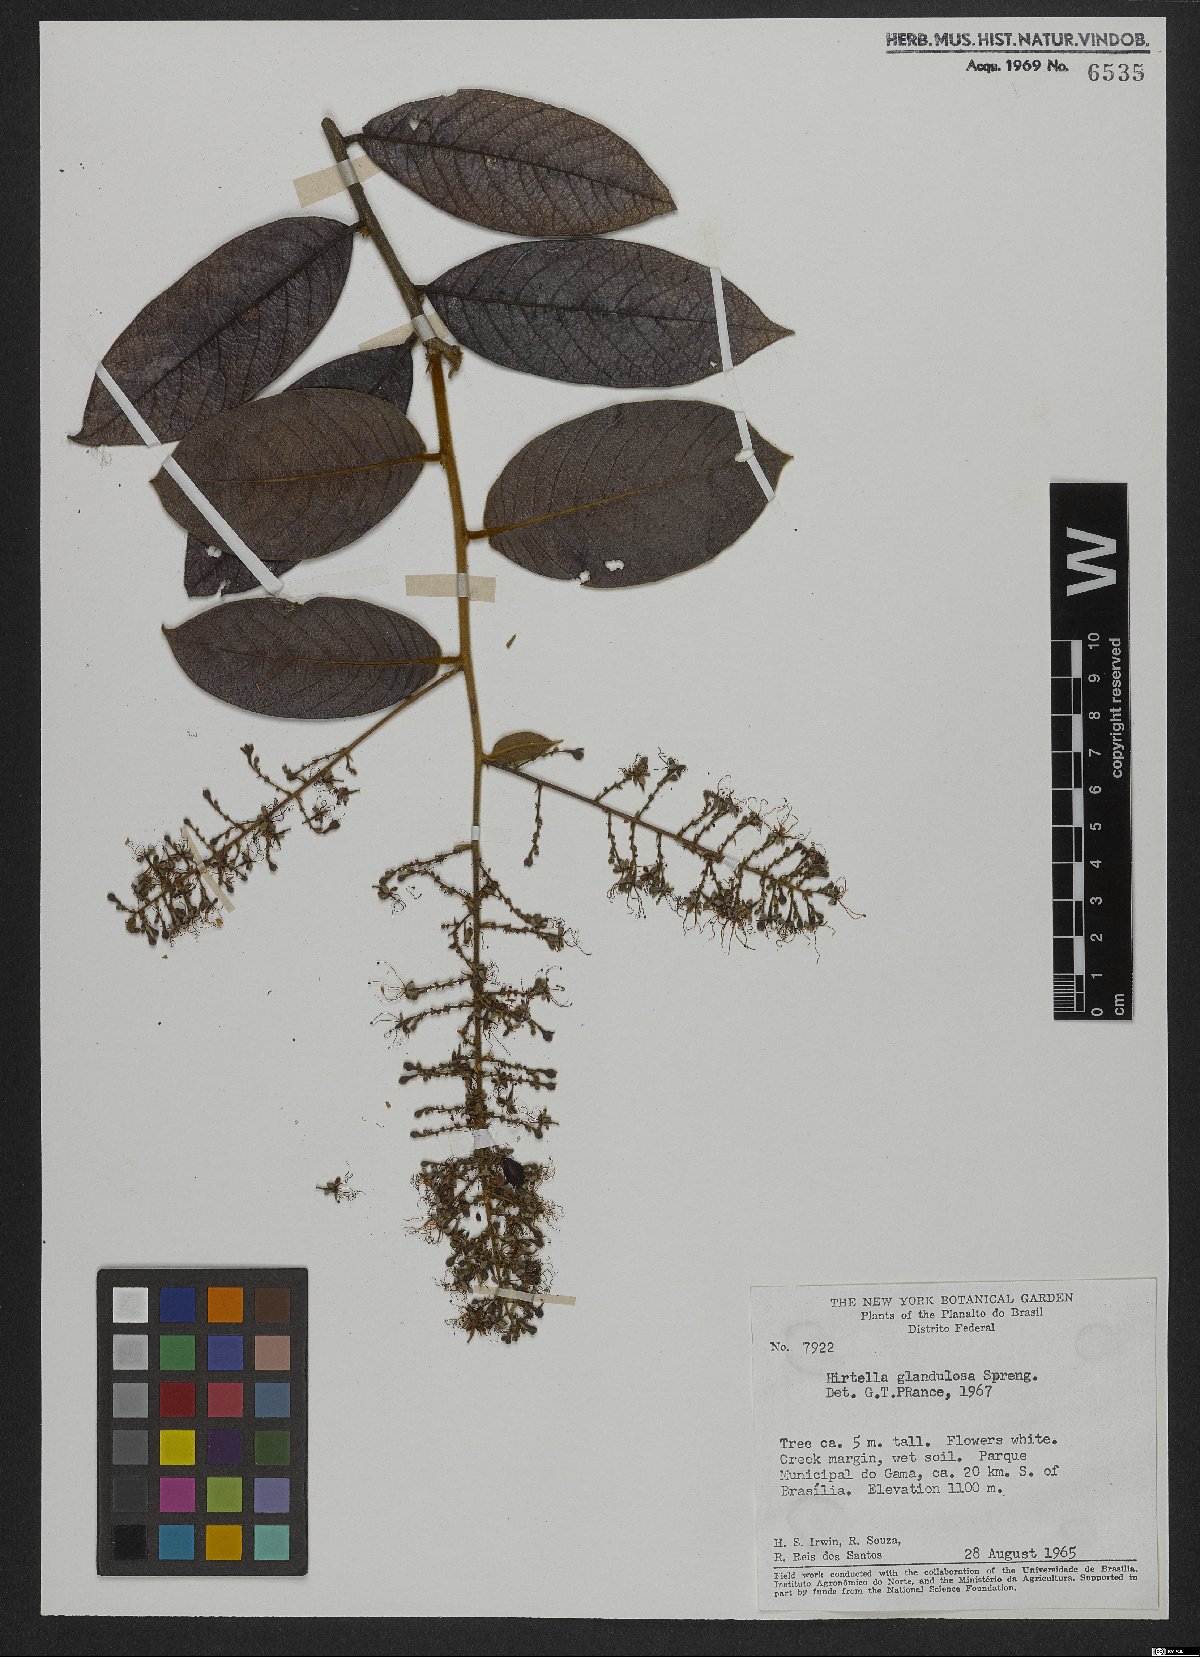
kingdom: Plantae
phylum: Tracheophyta
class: Magnoliopsida
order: Malpighiales
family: Chrysobalanaceae
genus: Hirtella
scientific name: Hirtella glandulosa
